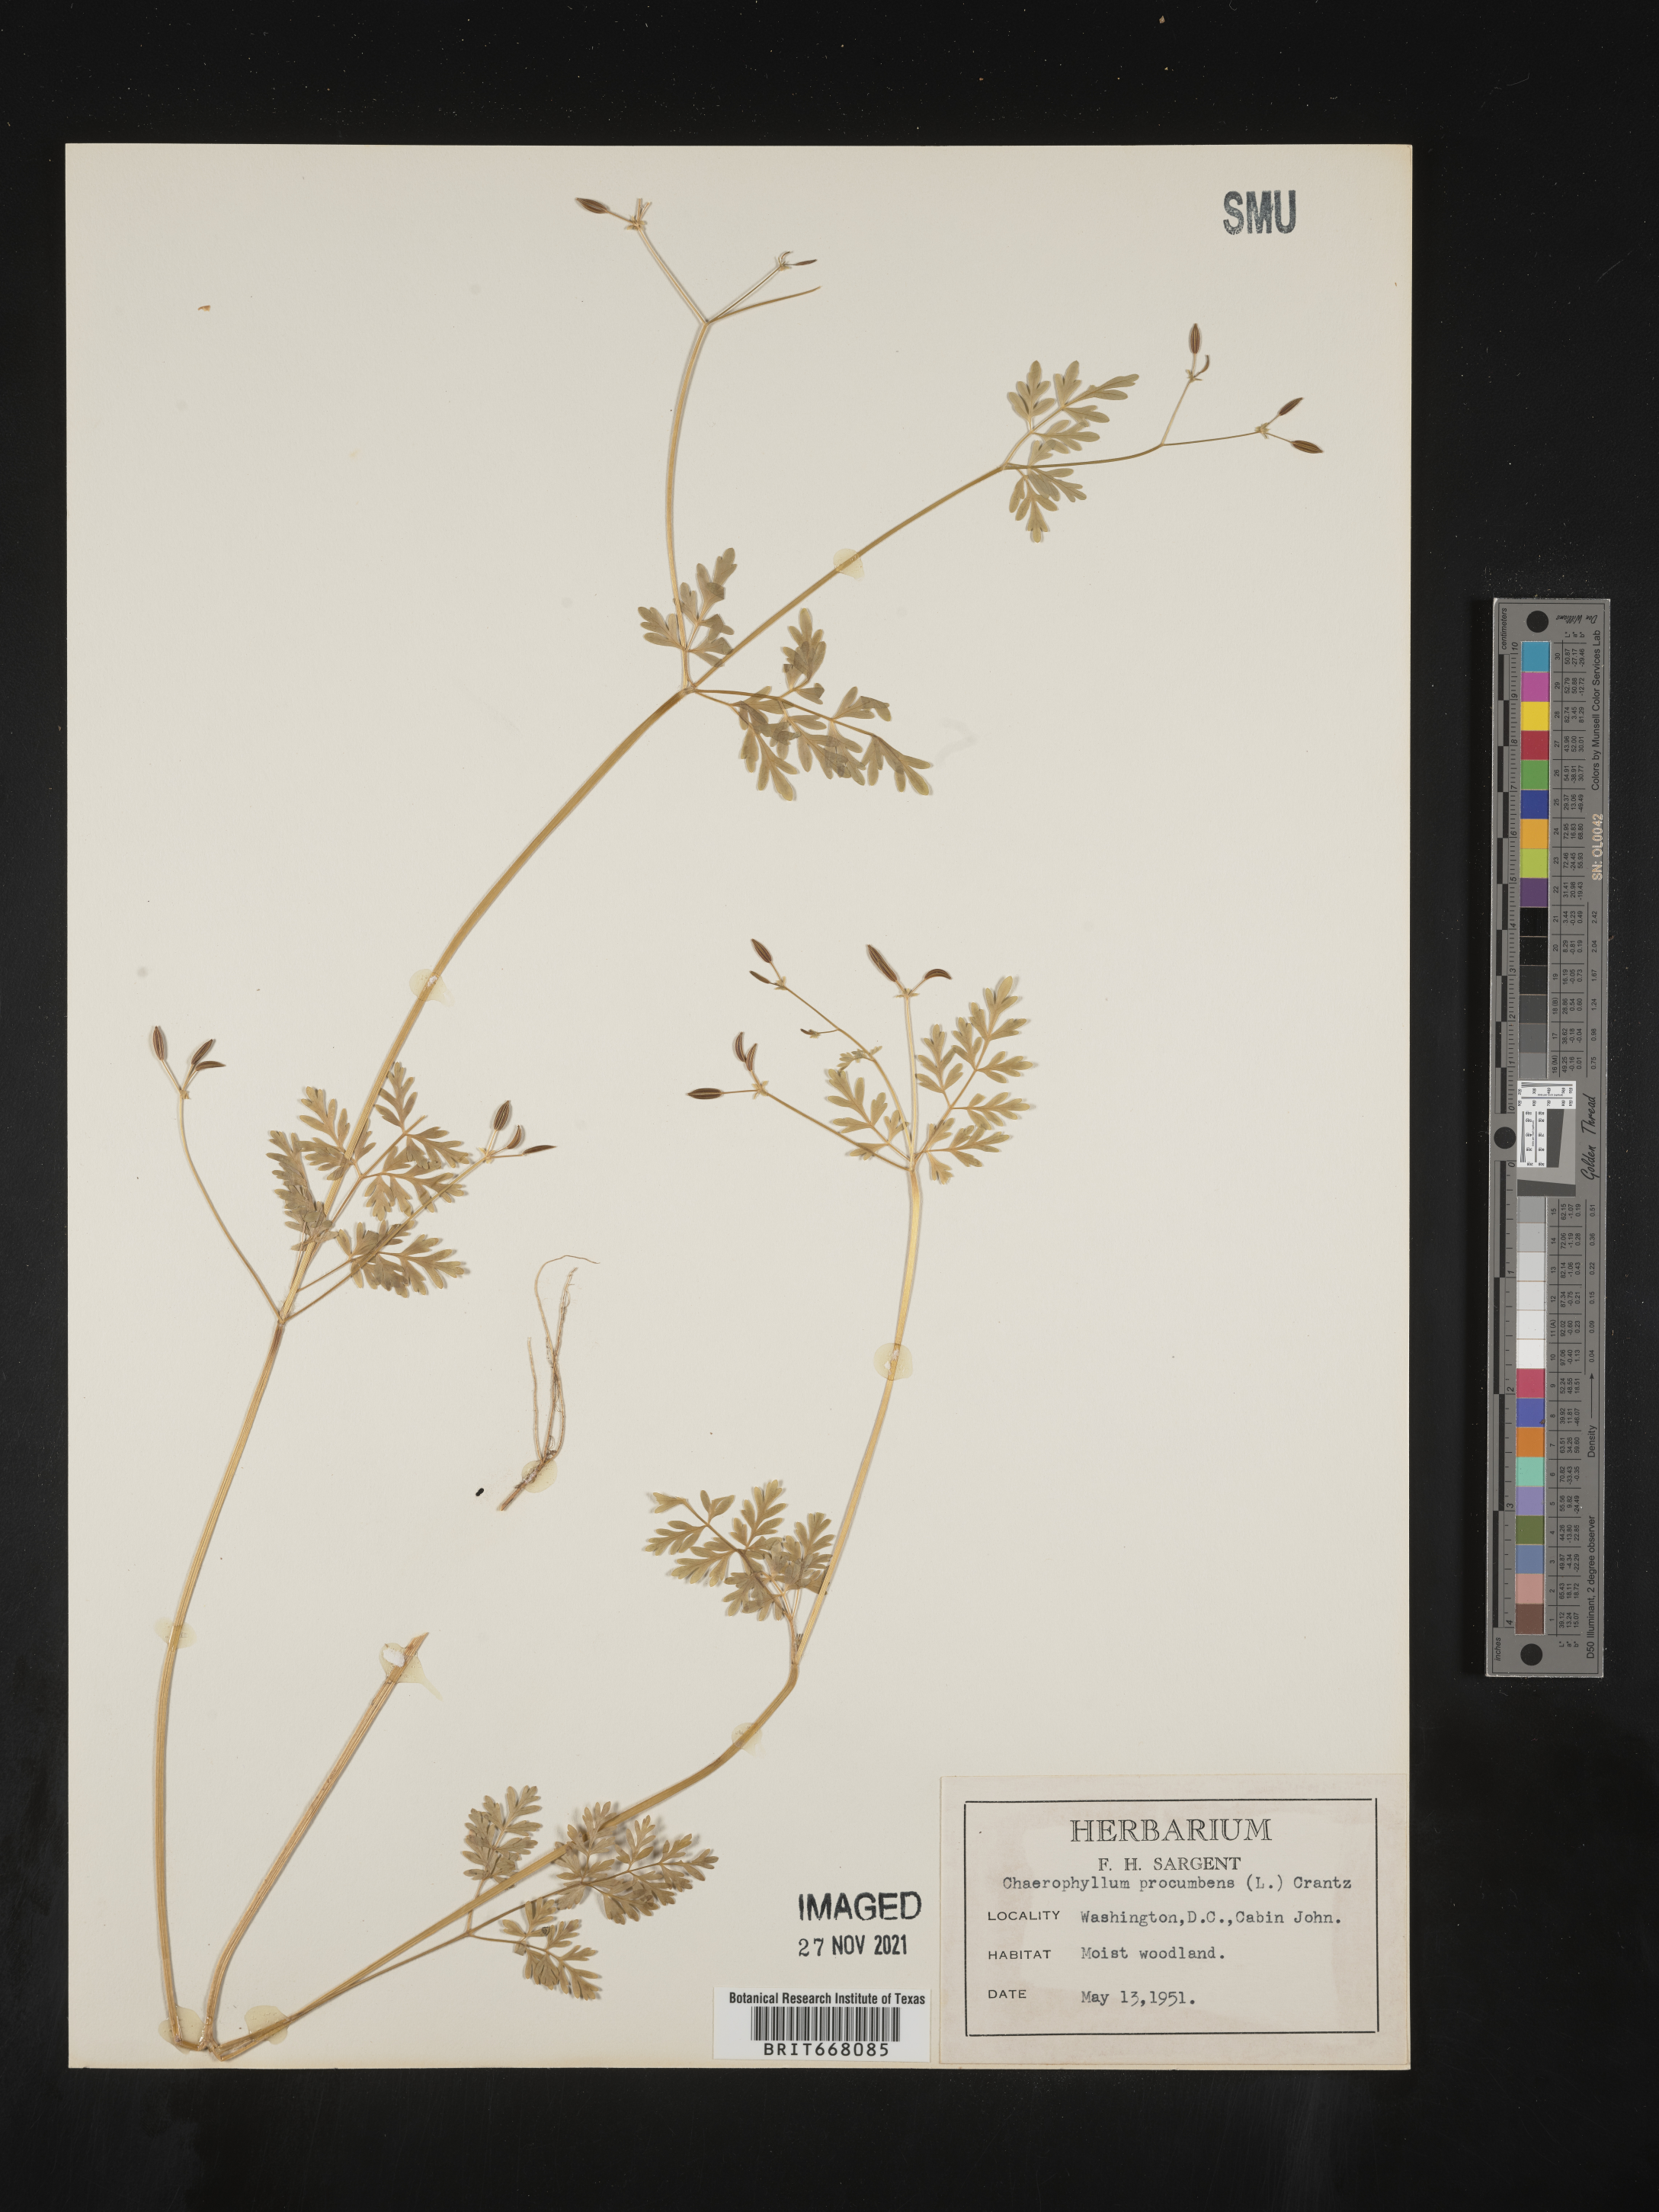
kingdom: Plantae
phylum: Tracheophyta
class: Magnoliopsida
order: Apiales
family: Apiaceae
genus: Chaerophyllum
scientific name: Chaerophyllum procumbens
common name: Spreading chervil
